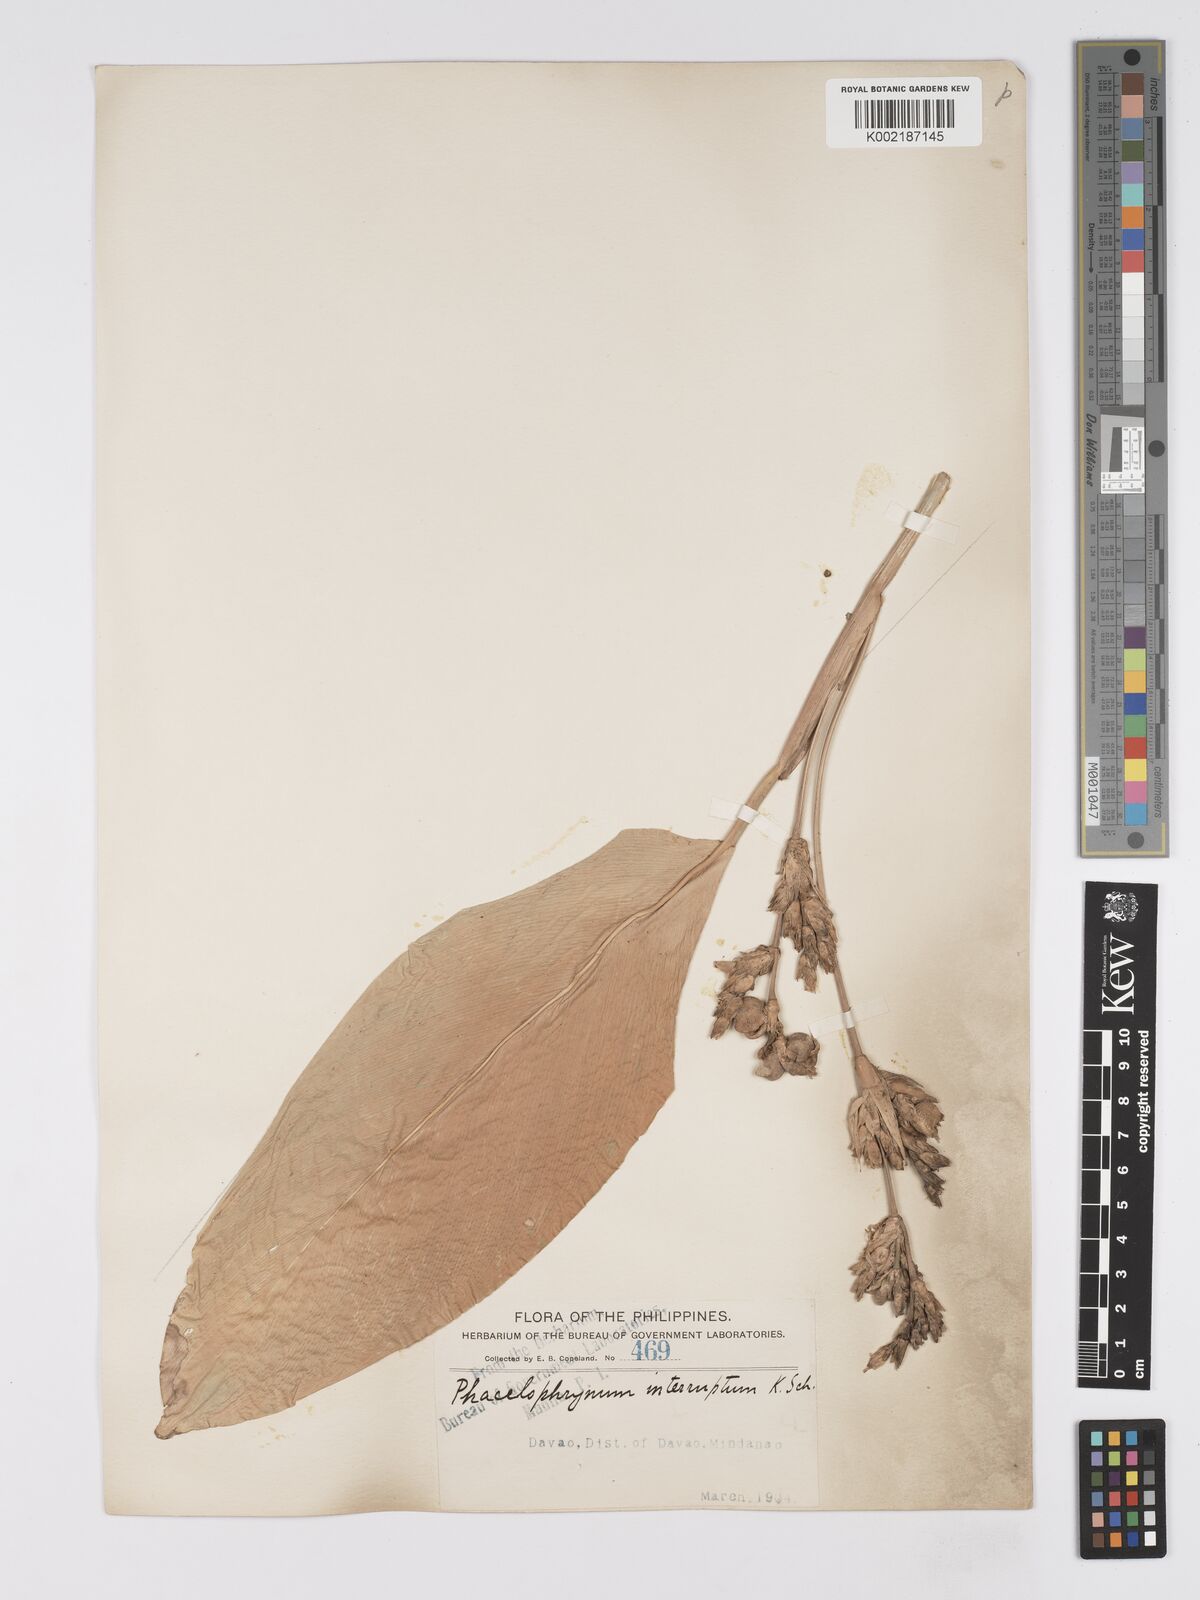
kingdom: Plantae
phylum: Tracheophyta
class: Liliopsida
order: Zingiberales
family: Marantaceae
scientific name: Marantaceae
